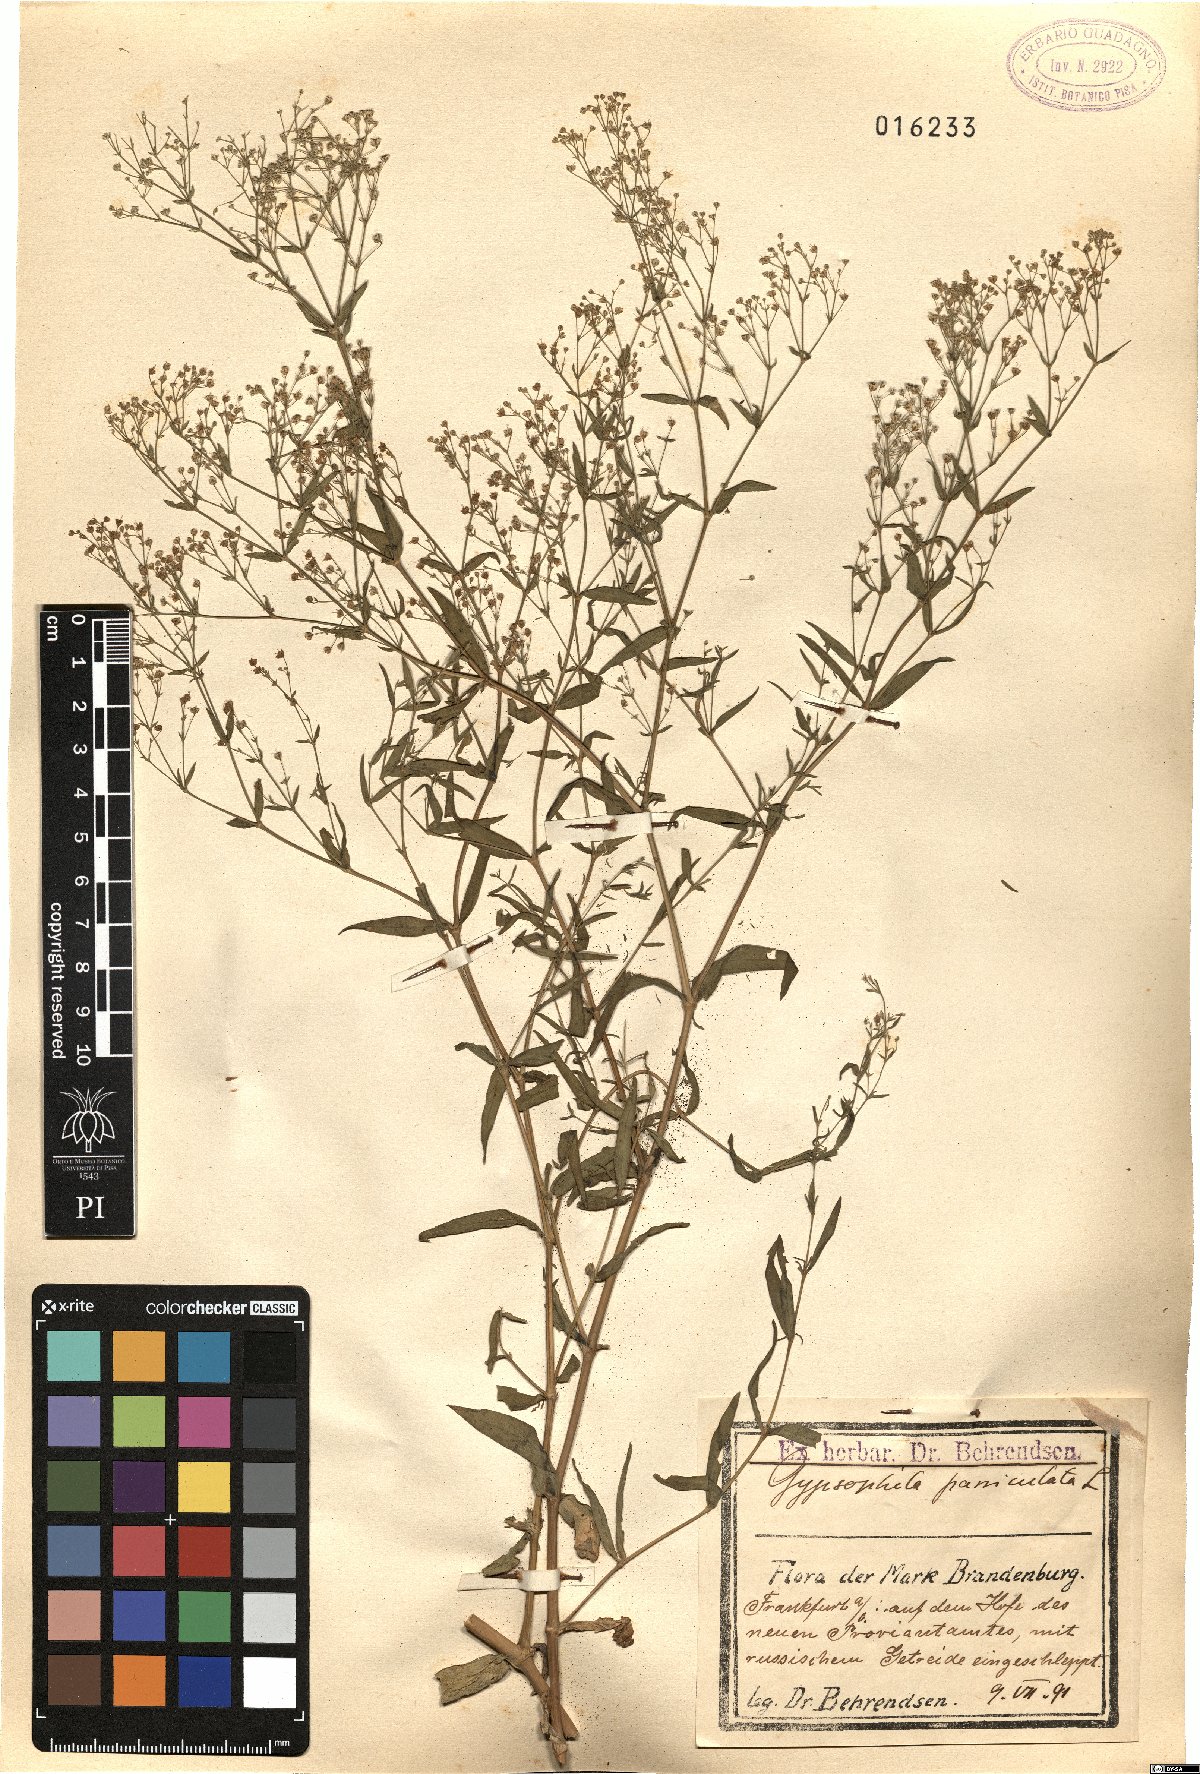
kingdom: Plantae
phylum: Tracheophyta
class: Magnoliopsida
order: Caryophyllales
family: Caryophyllaceae
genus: Gypsophila
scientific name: Gypsophila paniculata
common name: Baby's-breath
